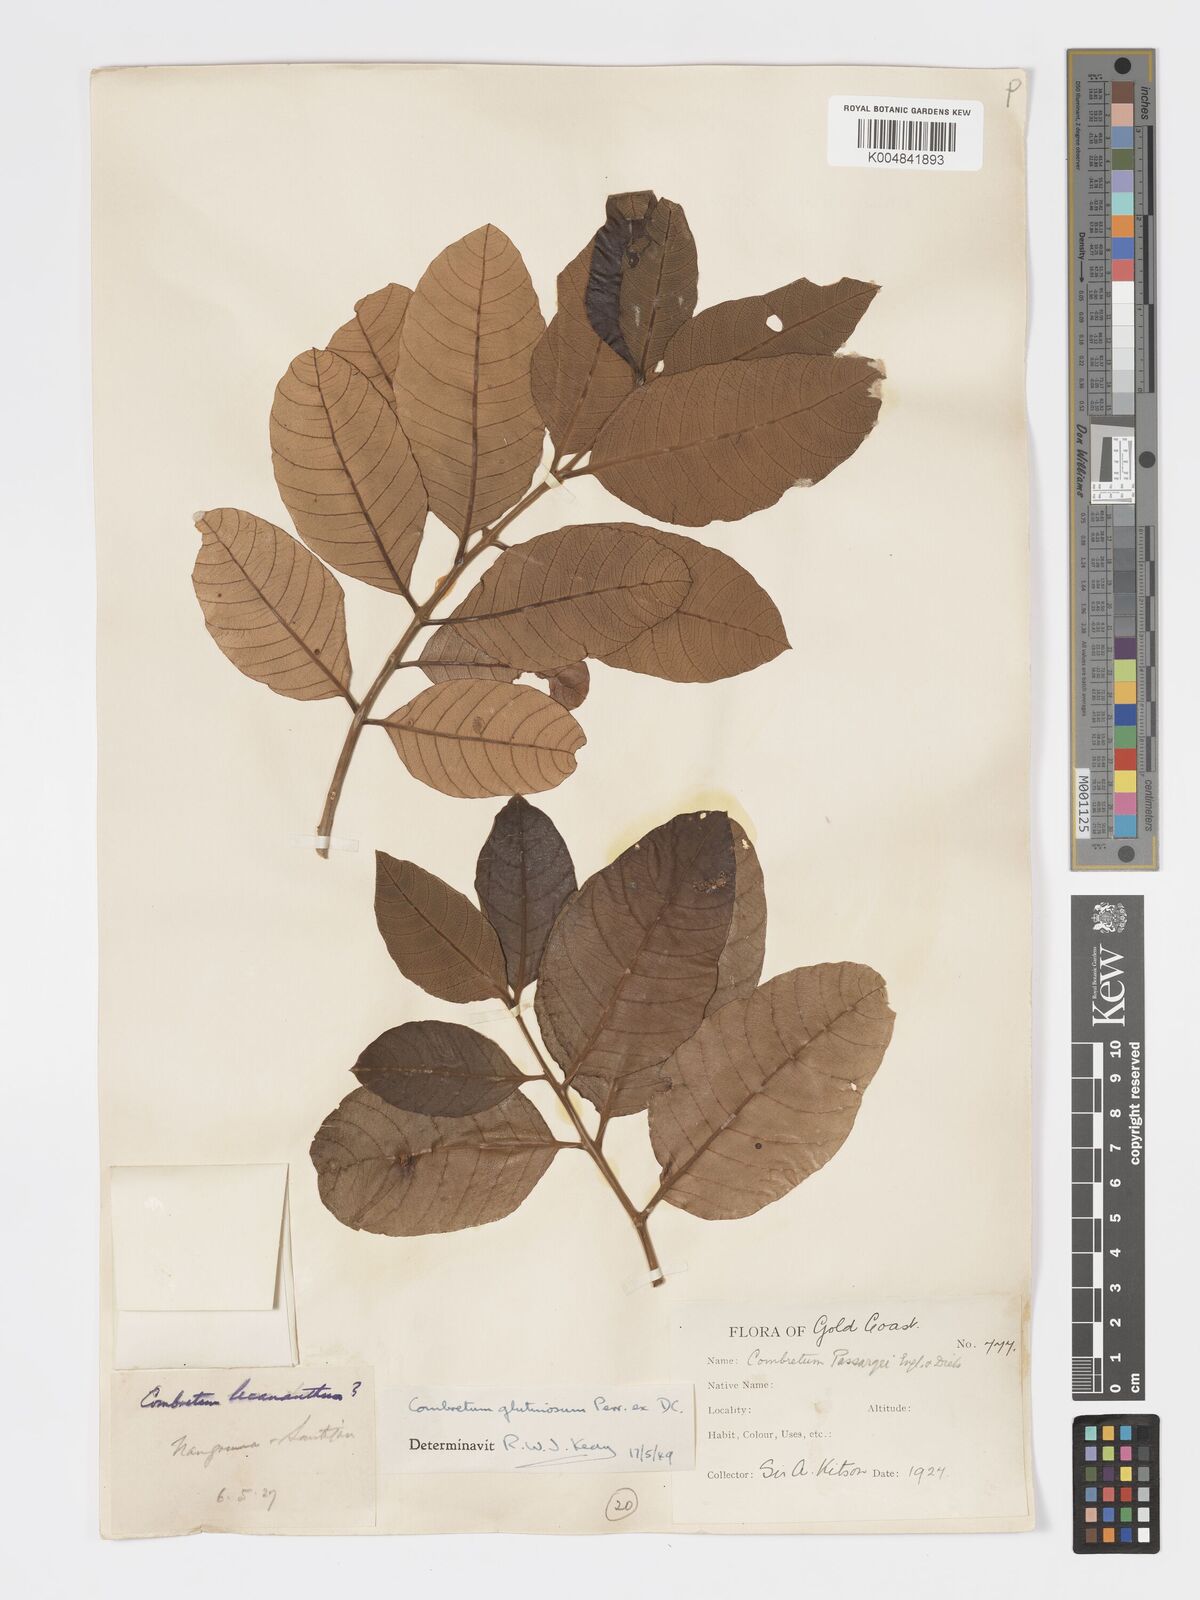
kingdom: Plantae
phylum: Tracheophyta
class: Magnoliopsida
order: Myrtales
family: Combretaceae
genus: Combretum
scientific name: Combretum
